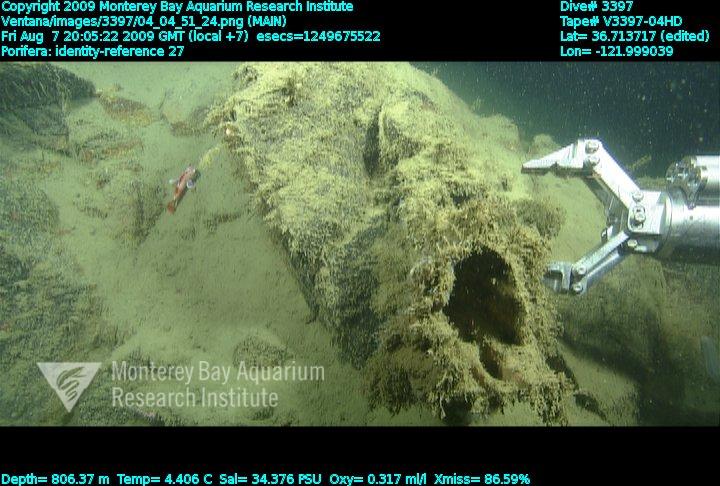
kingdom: Animalia
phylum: Porifera
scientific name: Porifera
